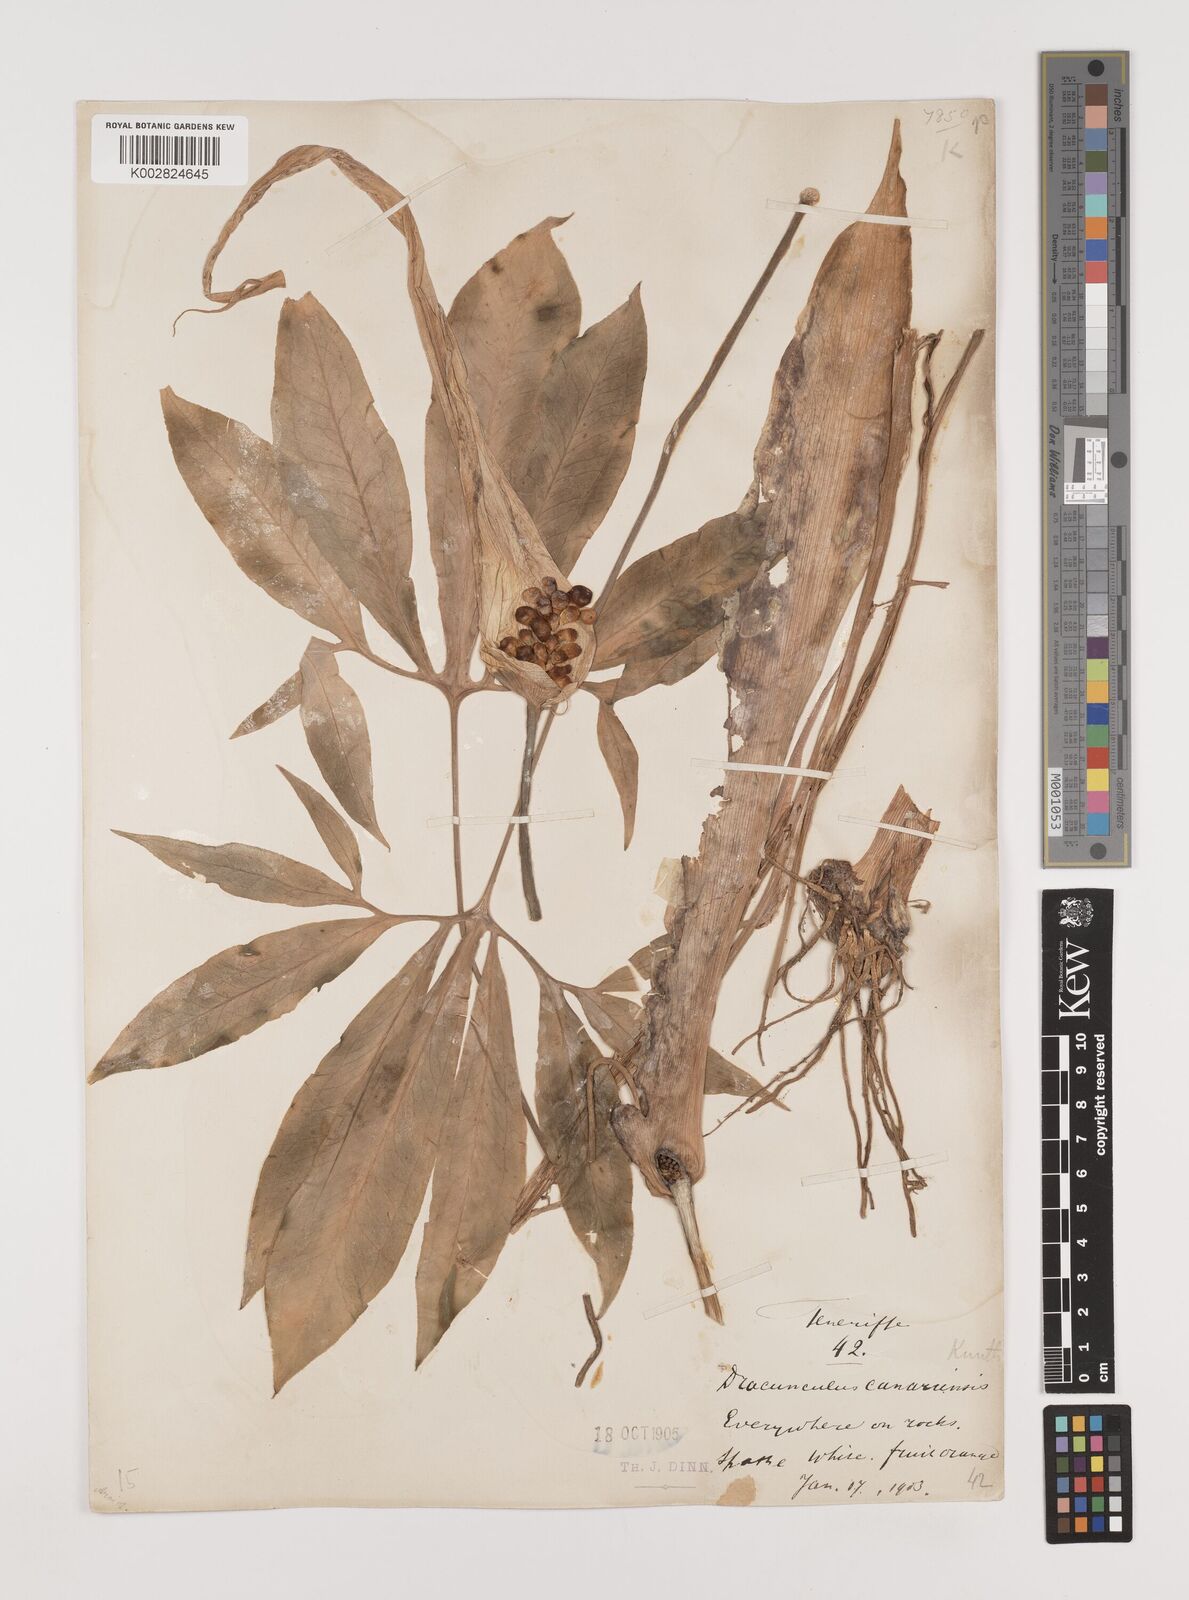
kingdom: Plantae
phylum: Tracheophyta
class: Liliopsida
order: Alismatales
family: Araceae
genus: Dracunculus
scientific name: Dracunculus canariensis
